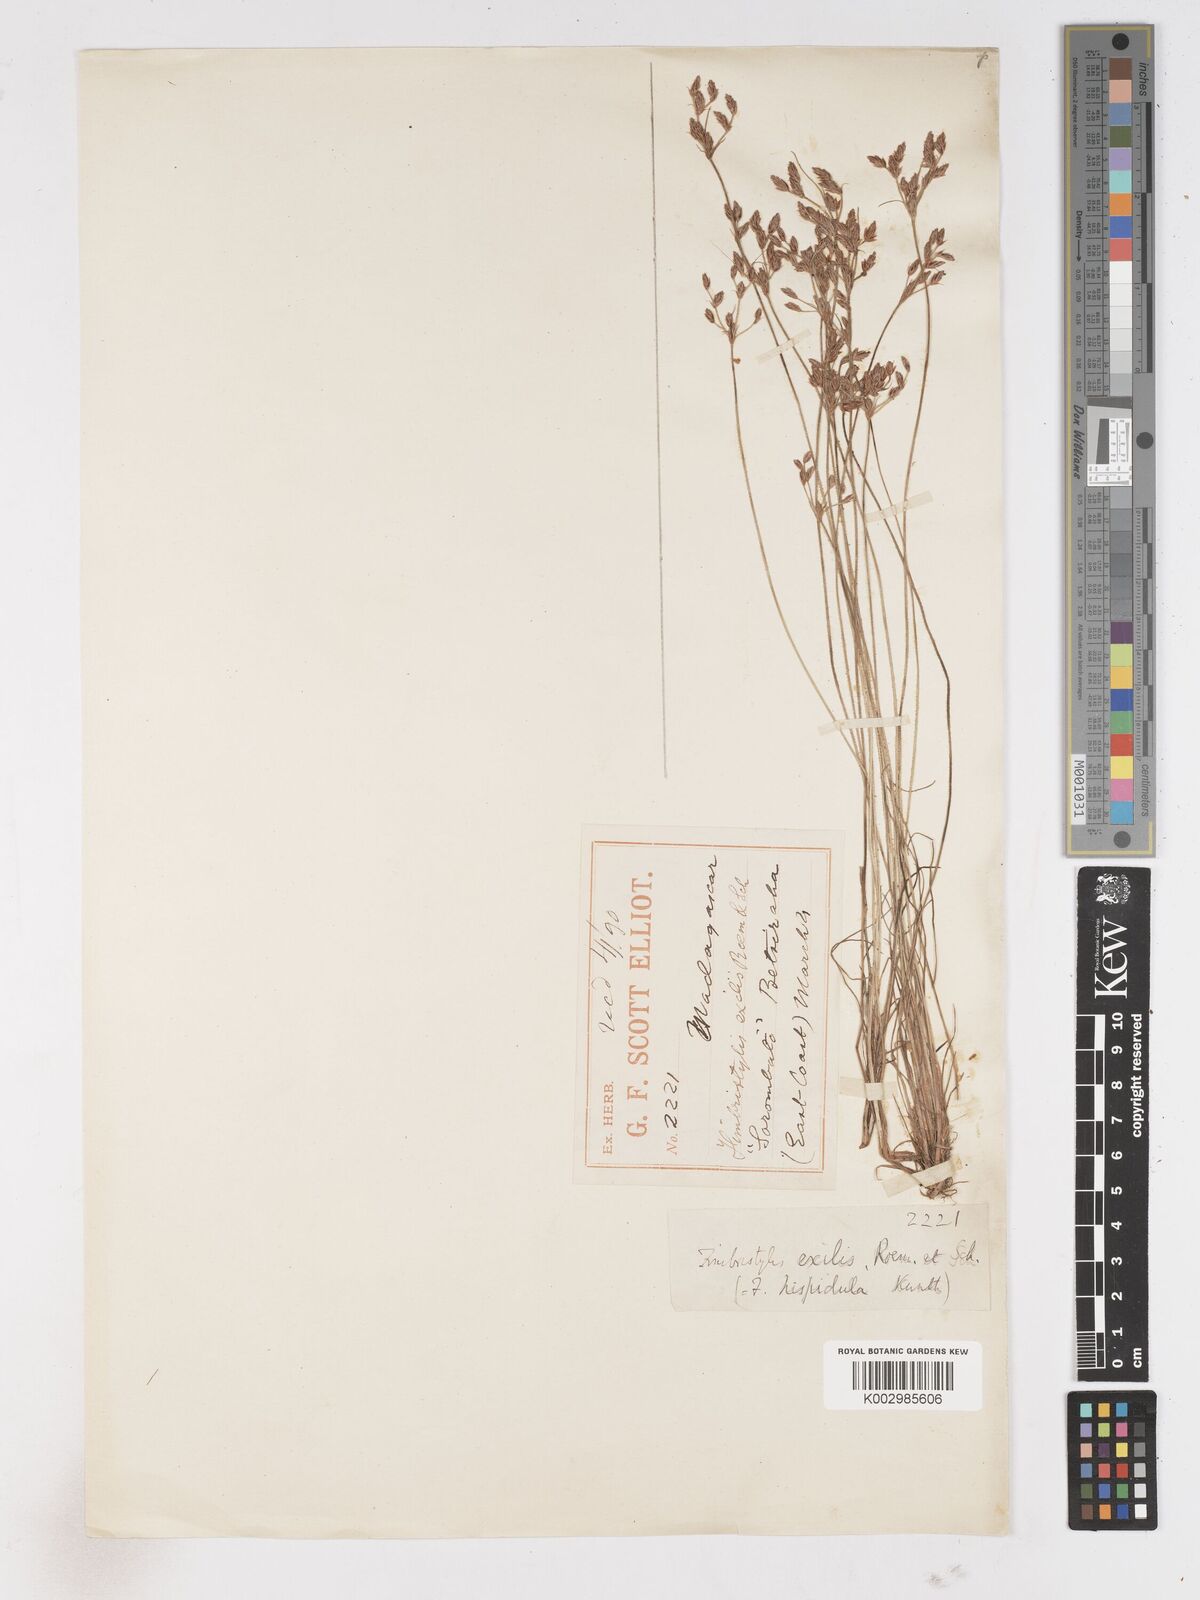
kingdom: Plantae
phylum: Tracheophyta
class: Liliopsida
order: Poales
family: Cyperaceae
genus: Bulbostylis
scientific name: Bulbostylis hispidula
